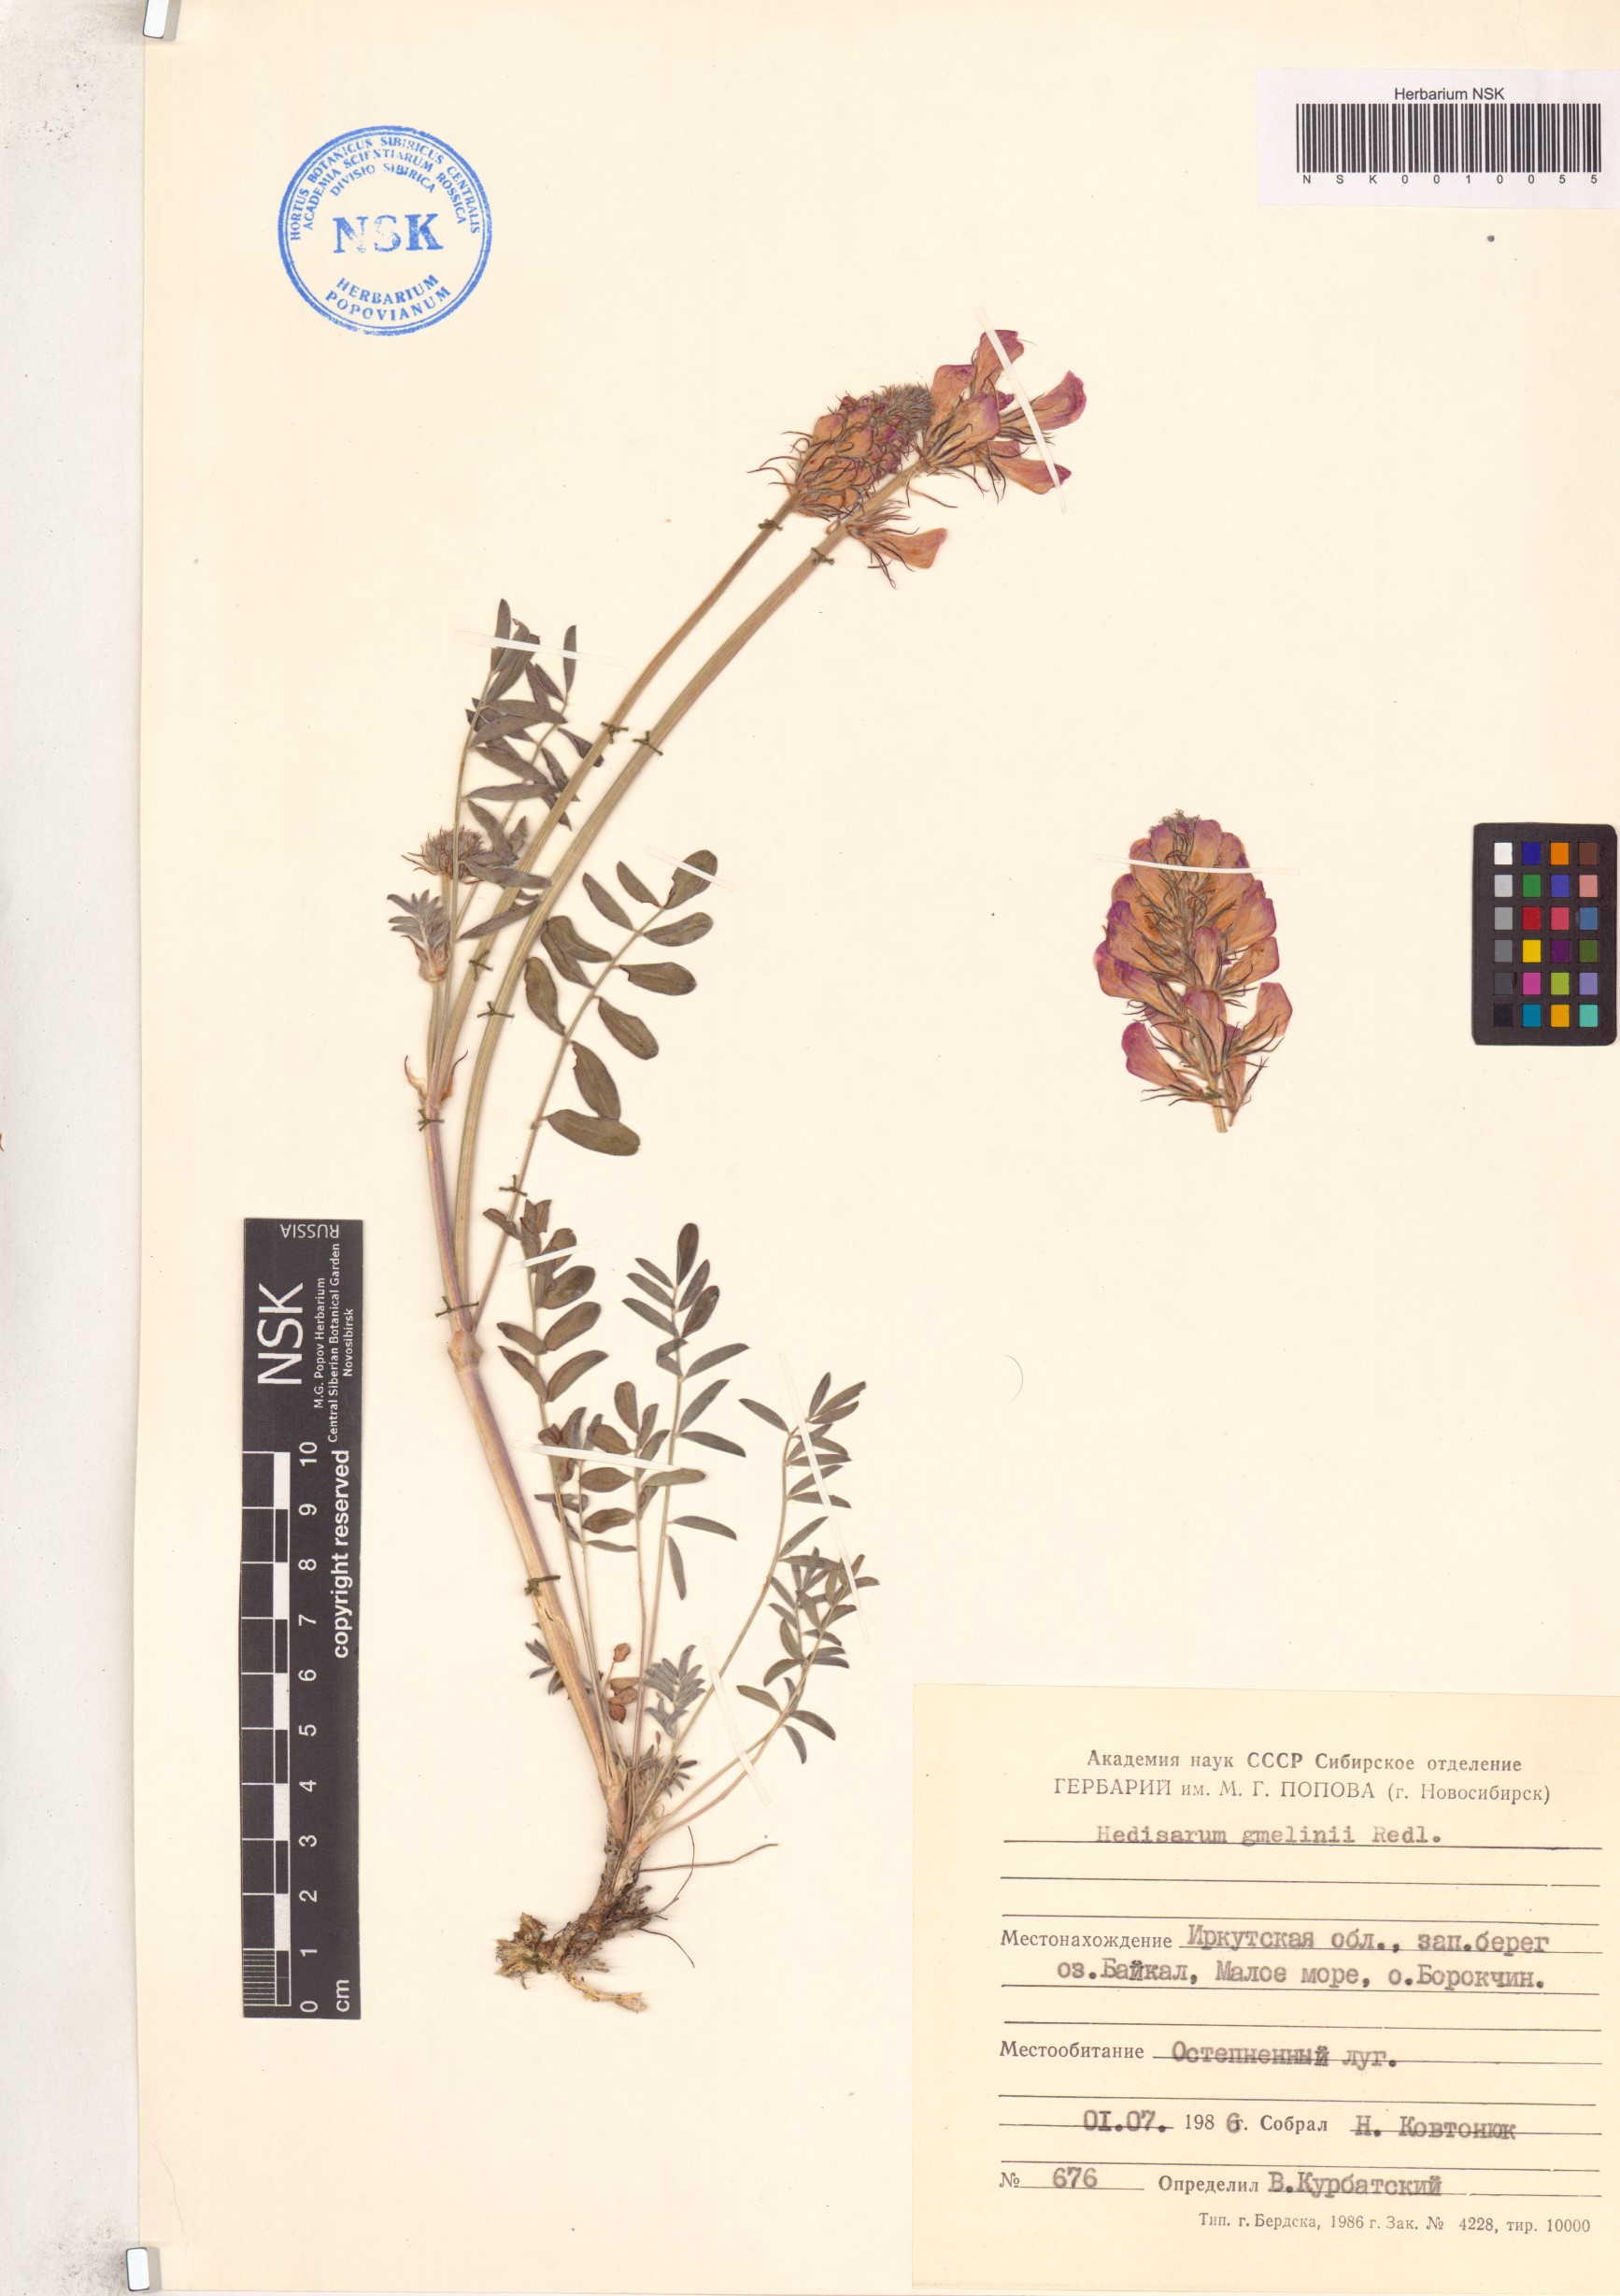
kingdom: Plantae
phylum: Tracheophyta
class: Magnoliopsida
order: Fabales
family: Fabaceae
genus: Hedysarum
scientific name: Hedysarum gmelinii
